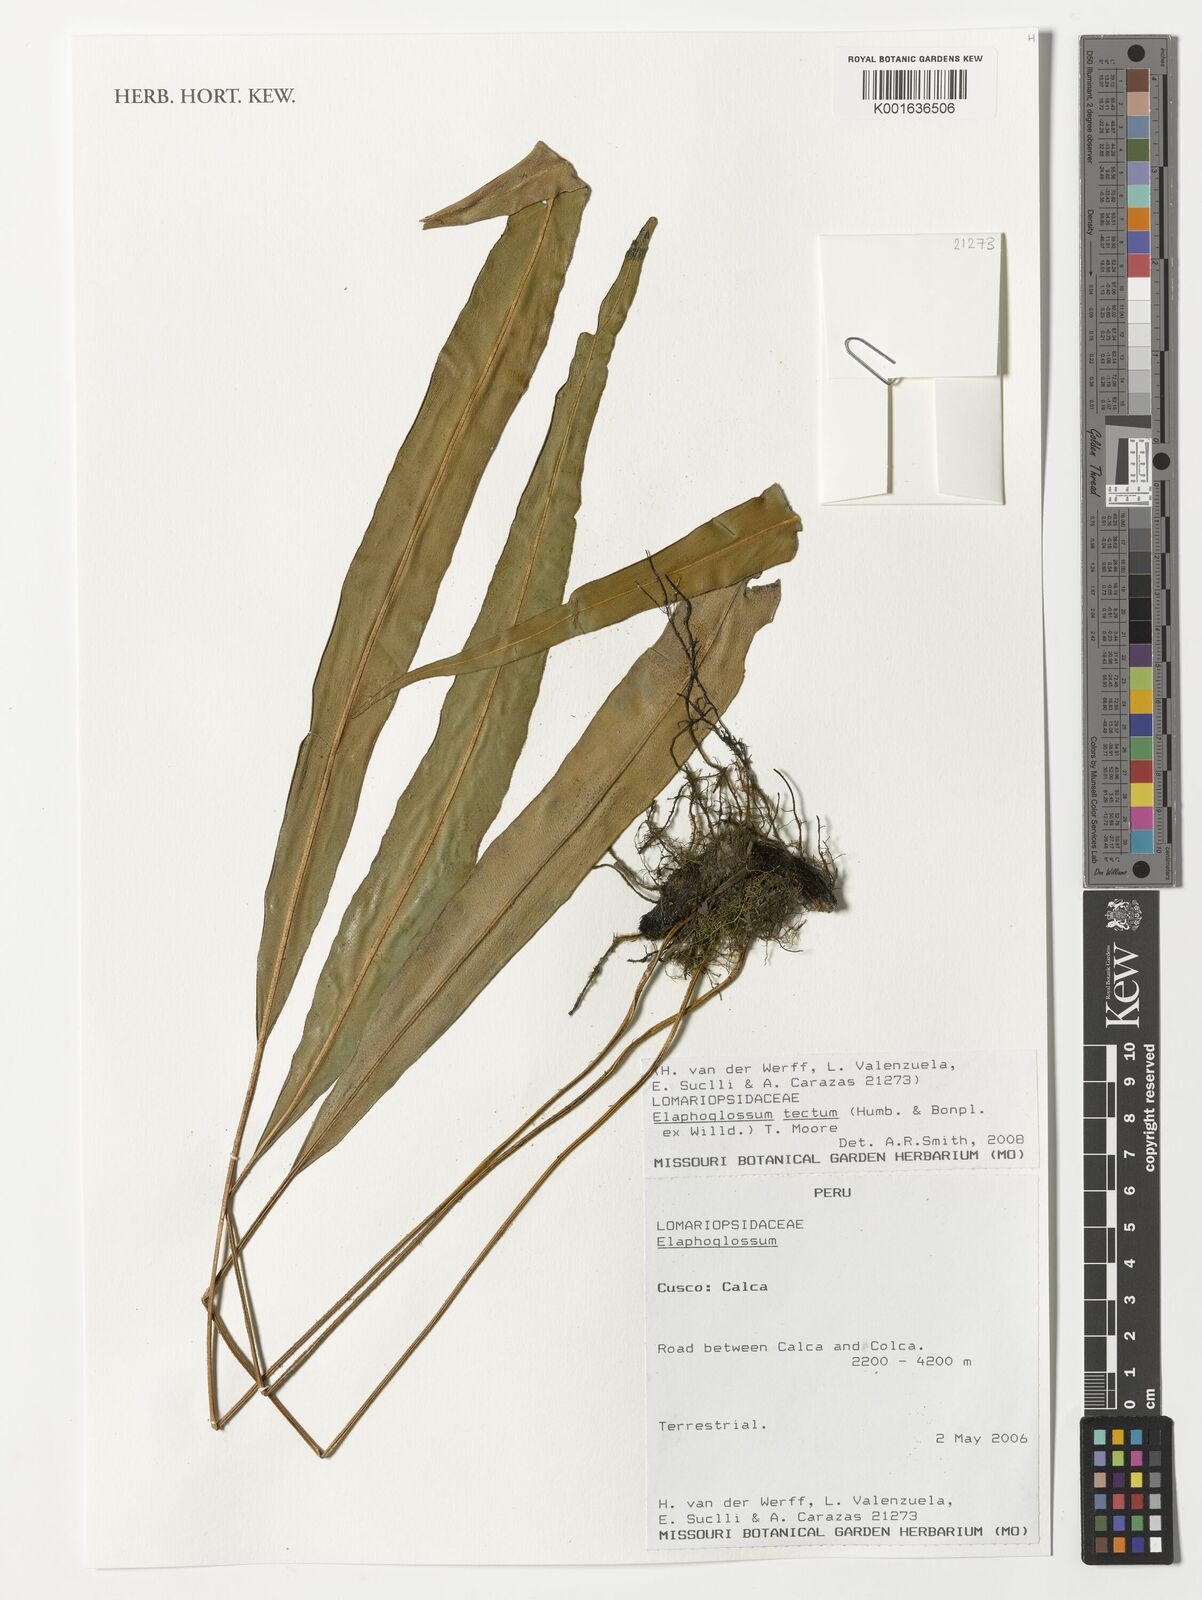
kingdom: Plantae
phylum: Tracheophyta
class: Polypodiopsida
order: Polypodiales
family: Dryopteridaceae
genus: Elaphoglossum
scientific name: Elaphoglossum tectum
